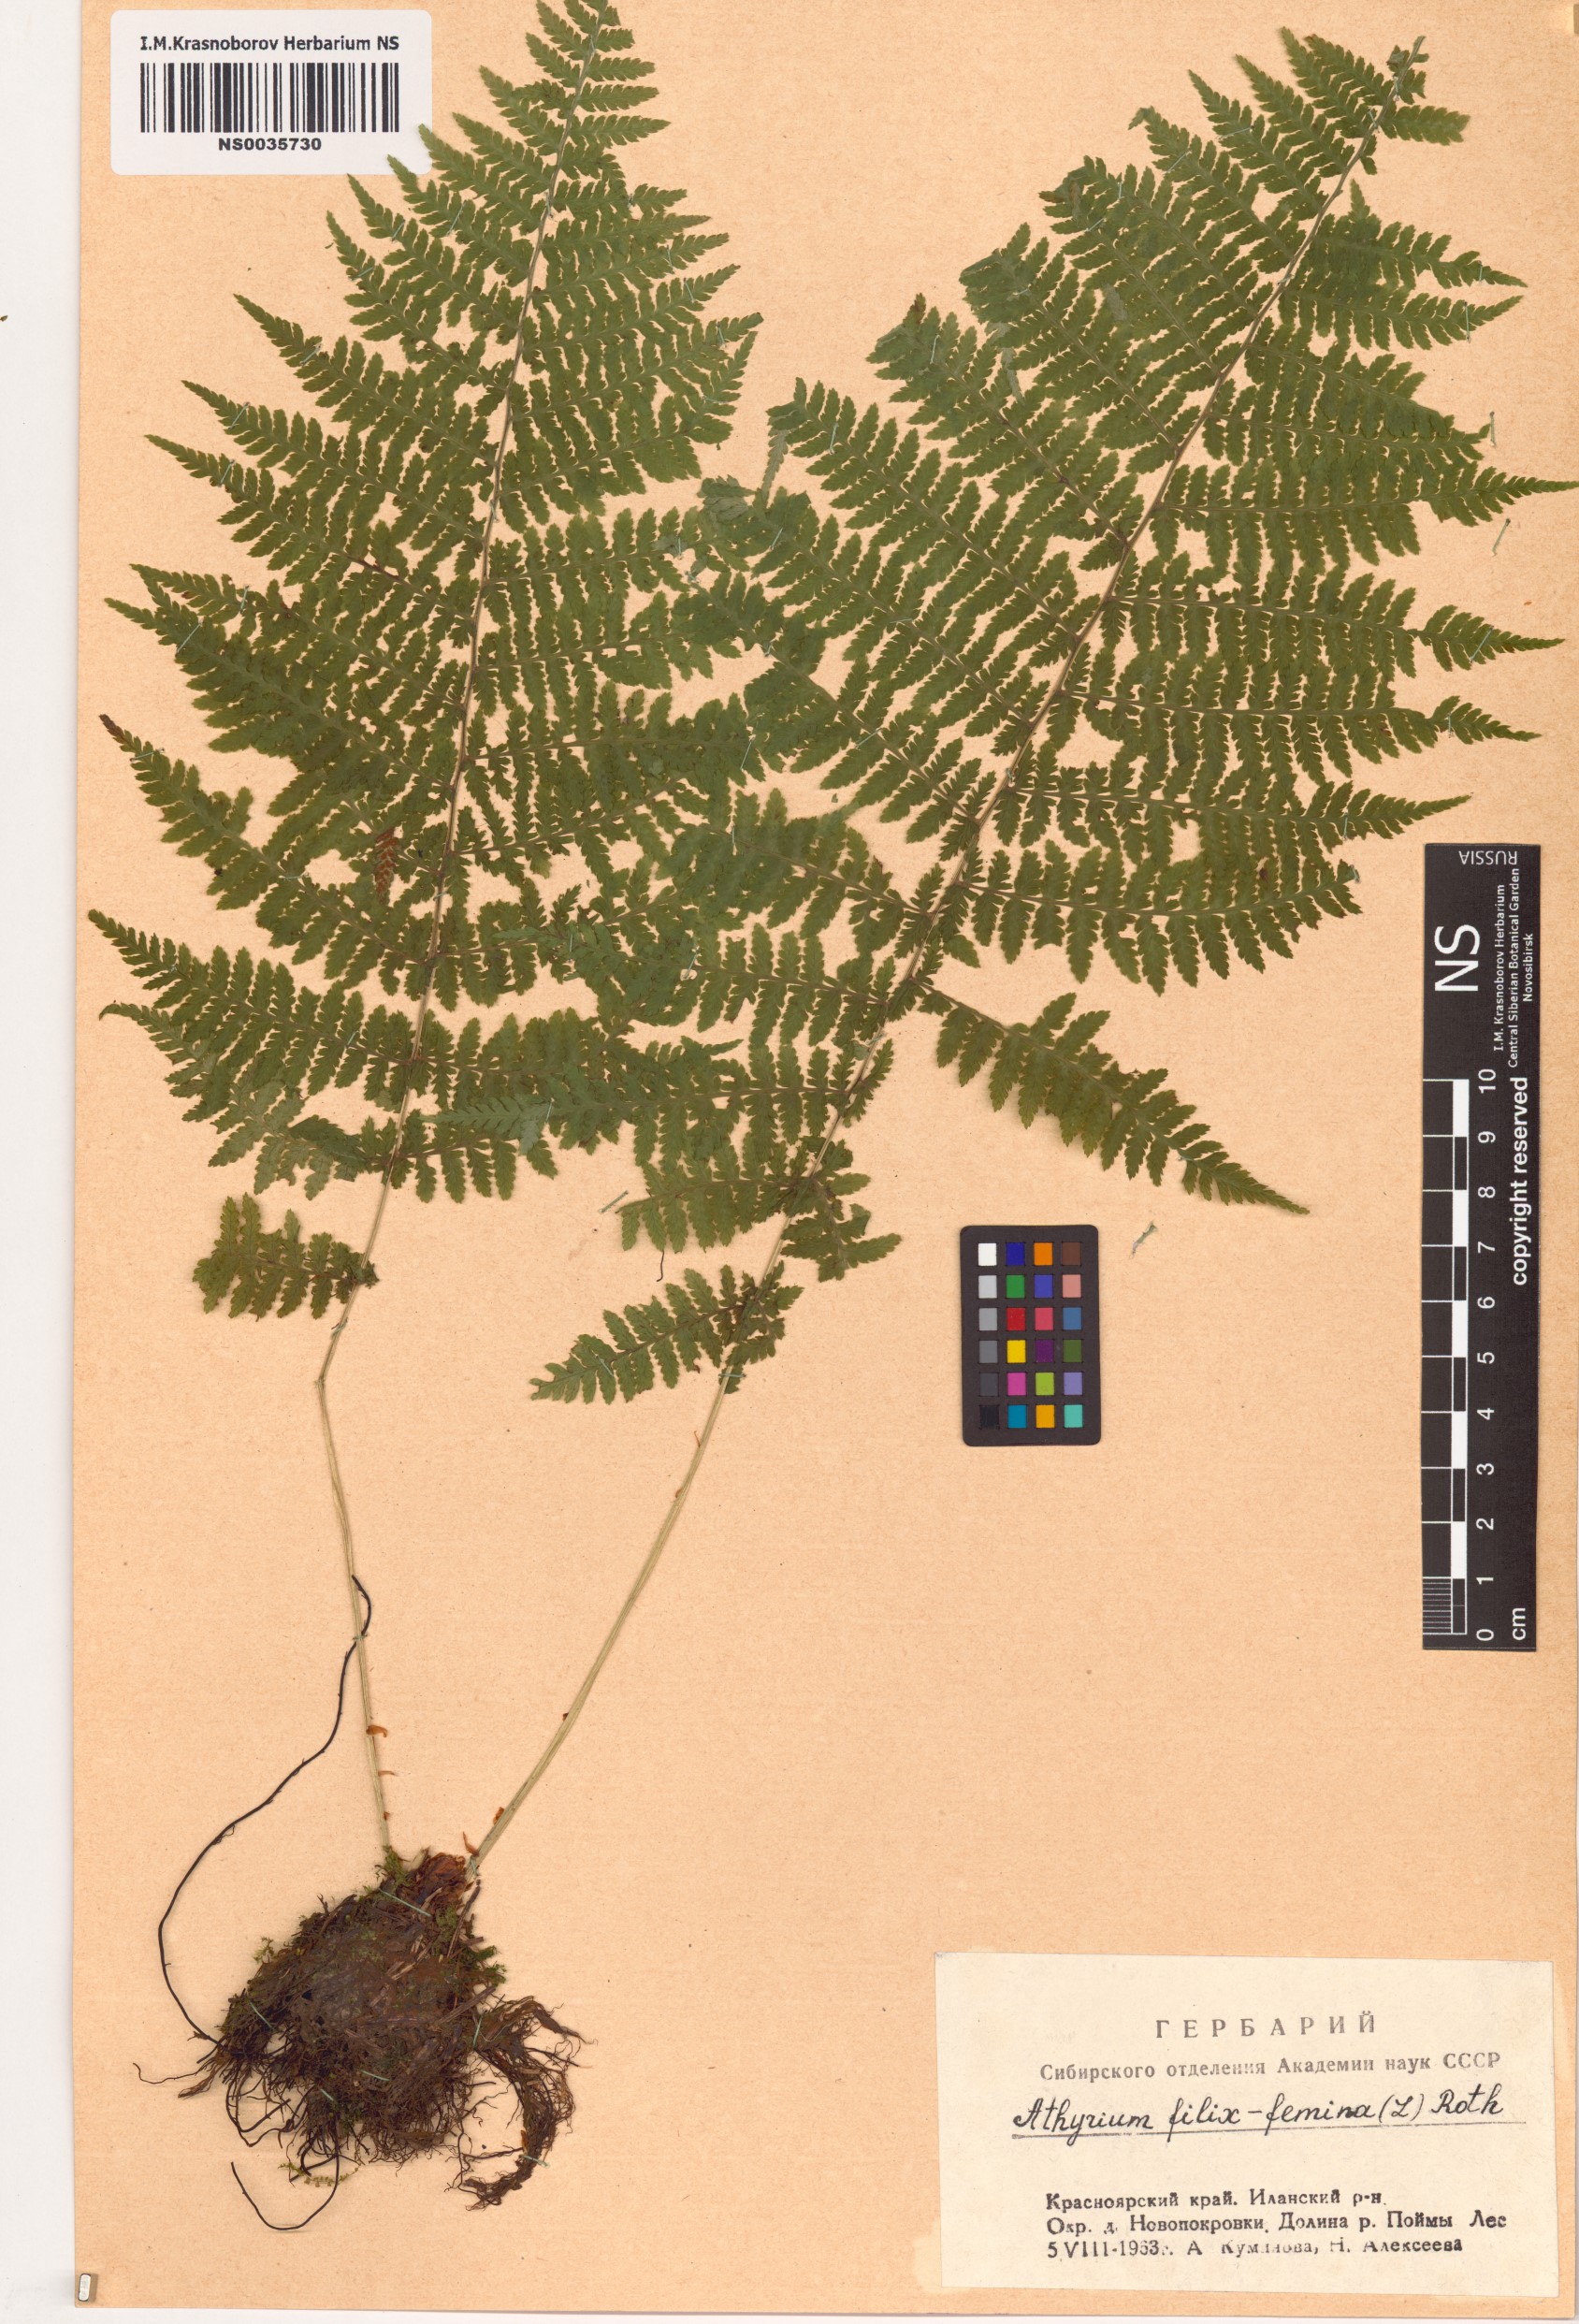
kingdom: Plantae
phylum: Tracheophyta
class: Polypodiopsida
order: Polypodiales
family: Athyriaceae
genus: Athyrium
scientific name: Athyrium filix-femina
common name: Lady fern
